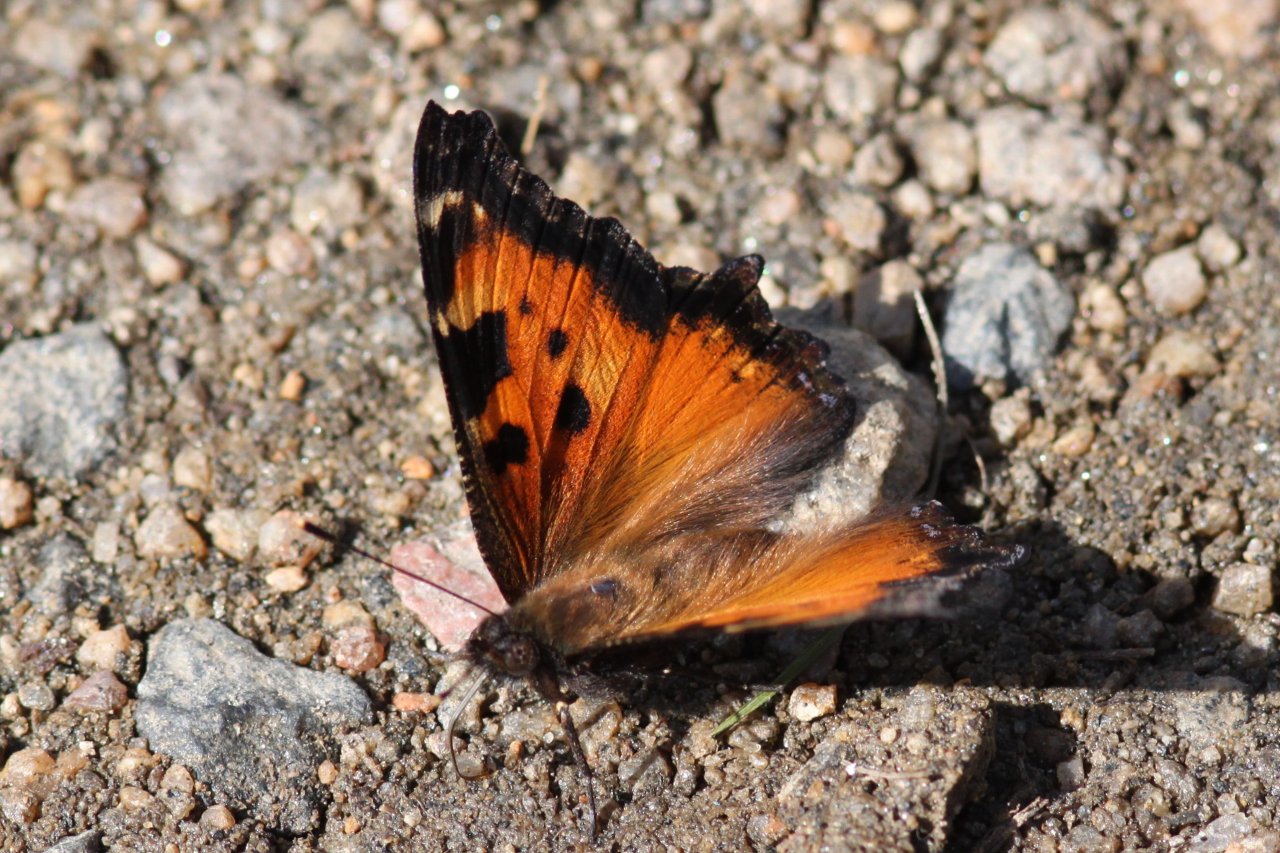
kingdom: Animalia
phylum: Arthropoda
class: Insecta
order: Lepidoptera
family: Nymphalidae
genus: Nymphalis
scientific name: Nymphalis californica
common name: California Tortoiseshell
